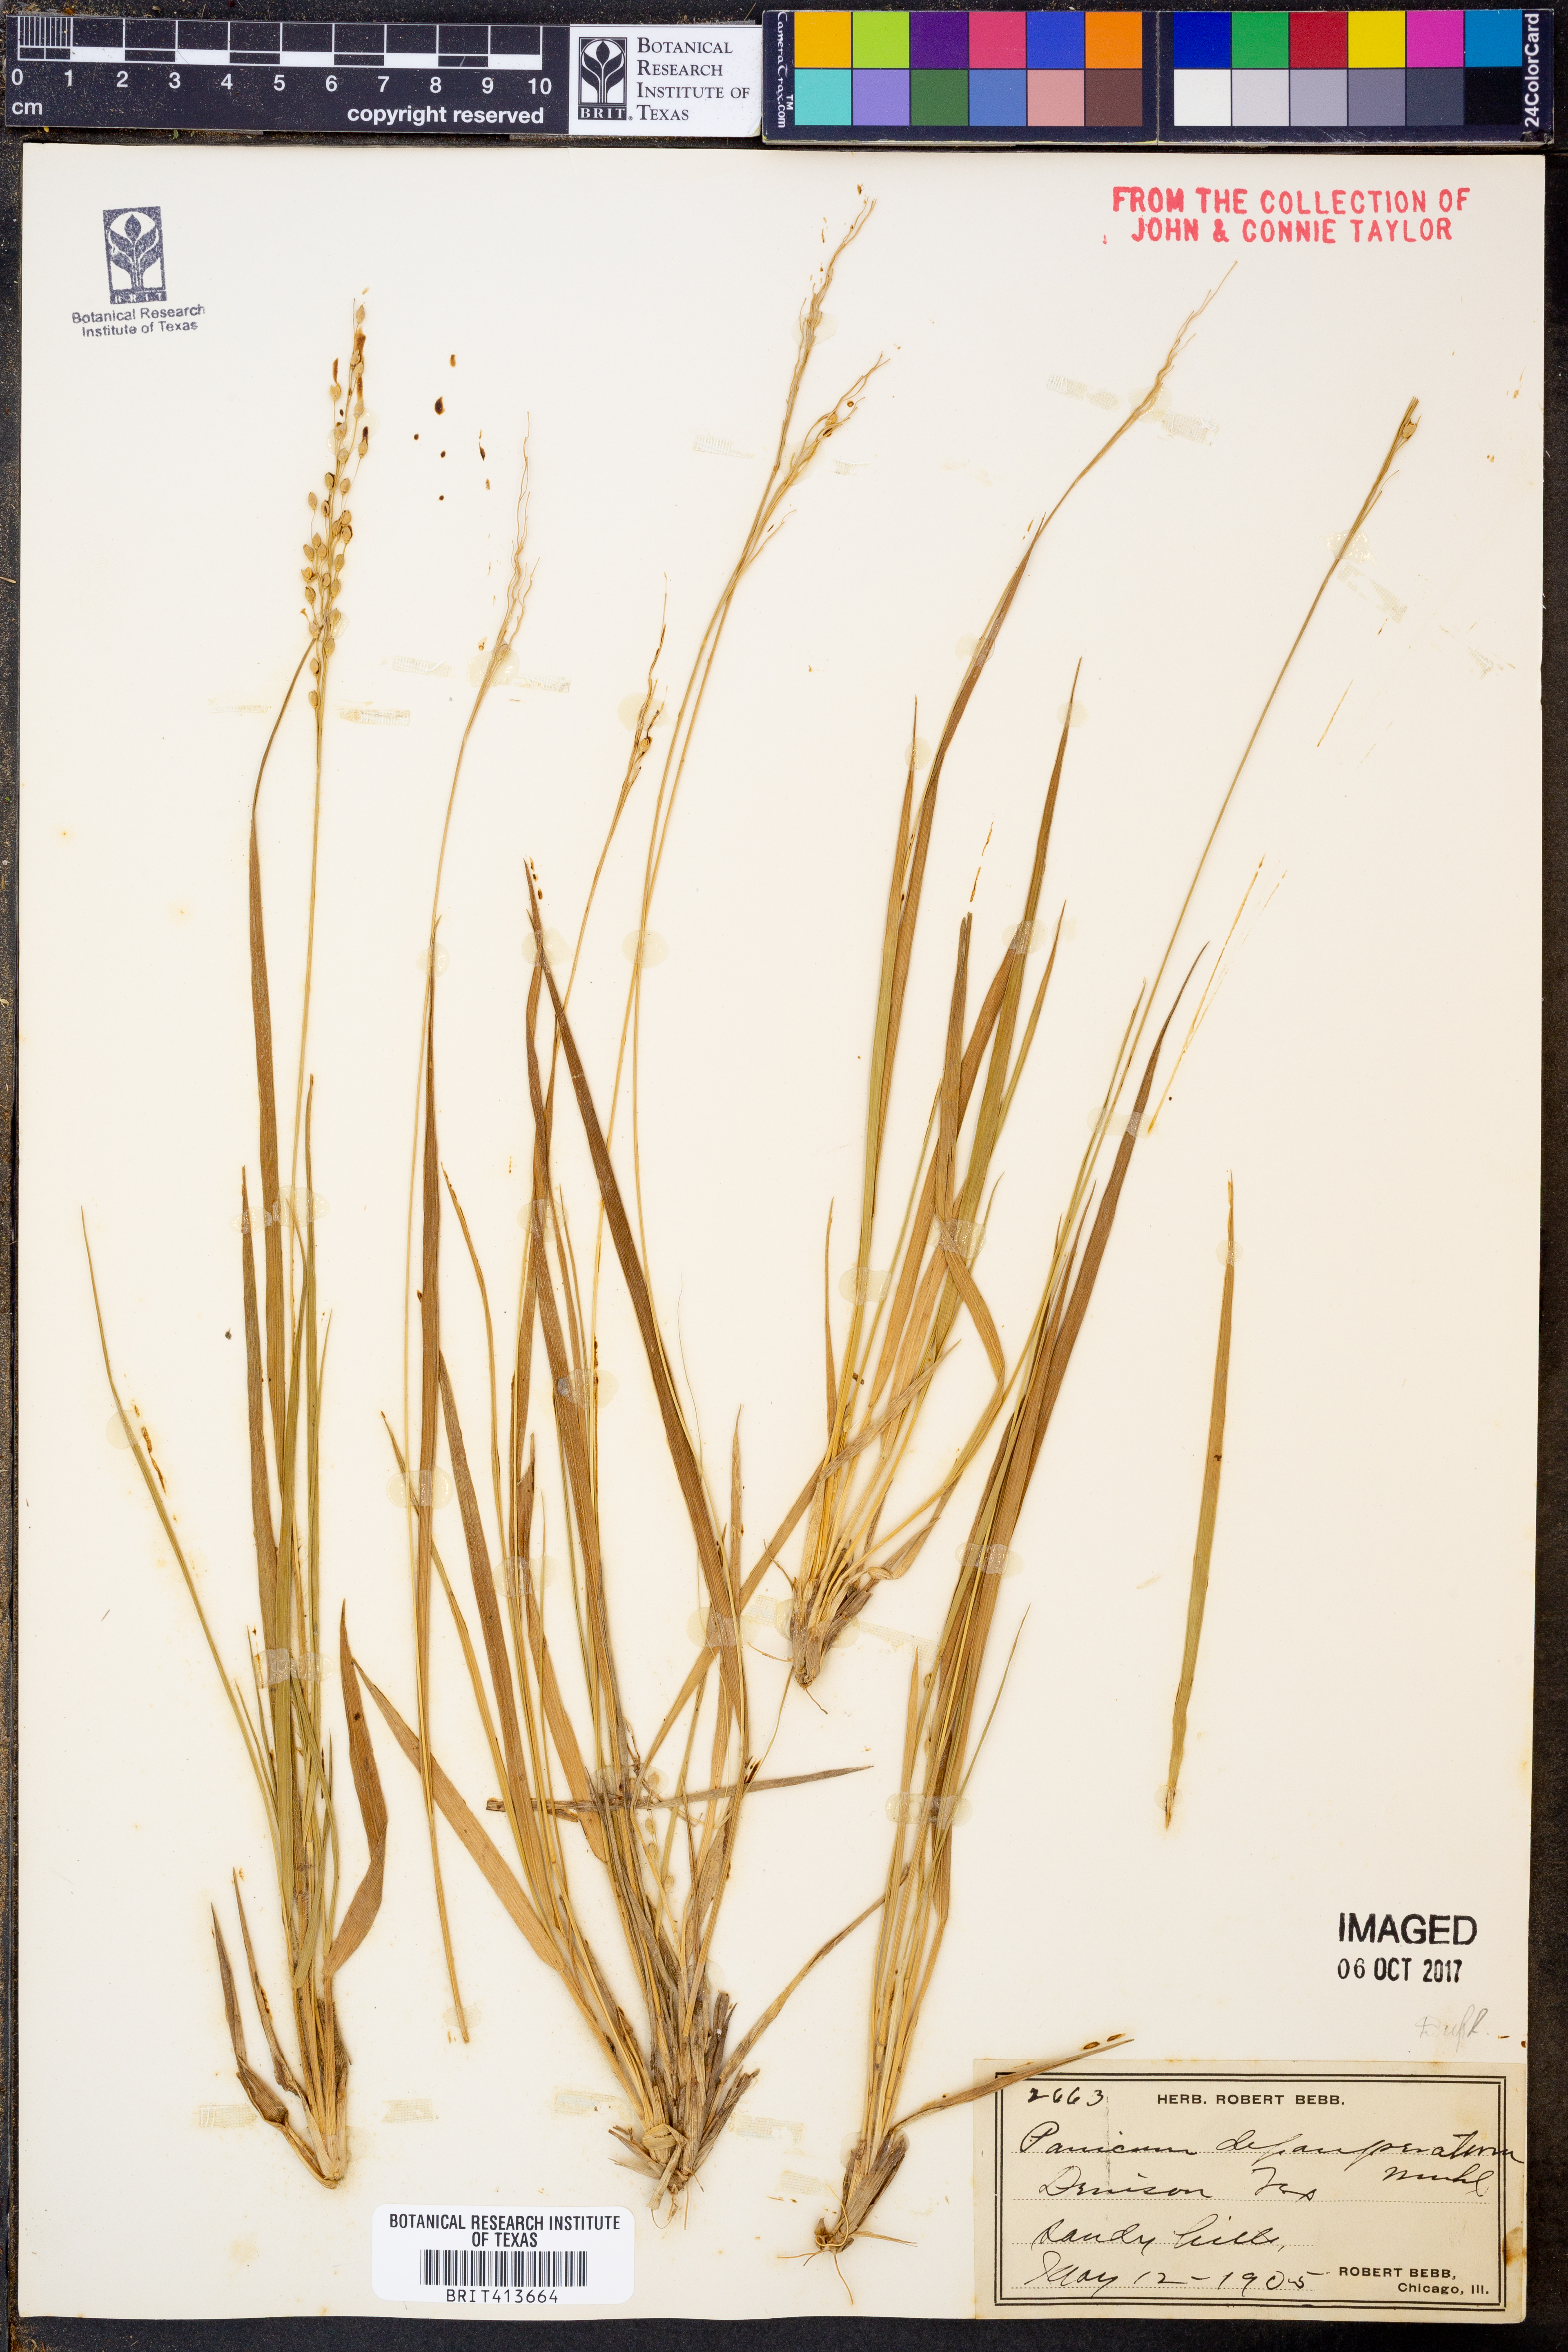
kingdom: Plantae
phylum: Tracheophyta
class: Liliopsida
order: Poales
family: Poaceae
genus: Dichanthelium
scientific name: Dichanthelium depauperatum
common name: Depauperate panicgrass
